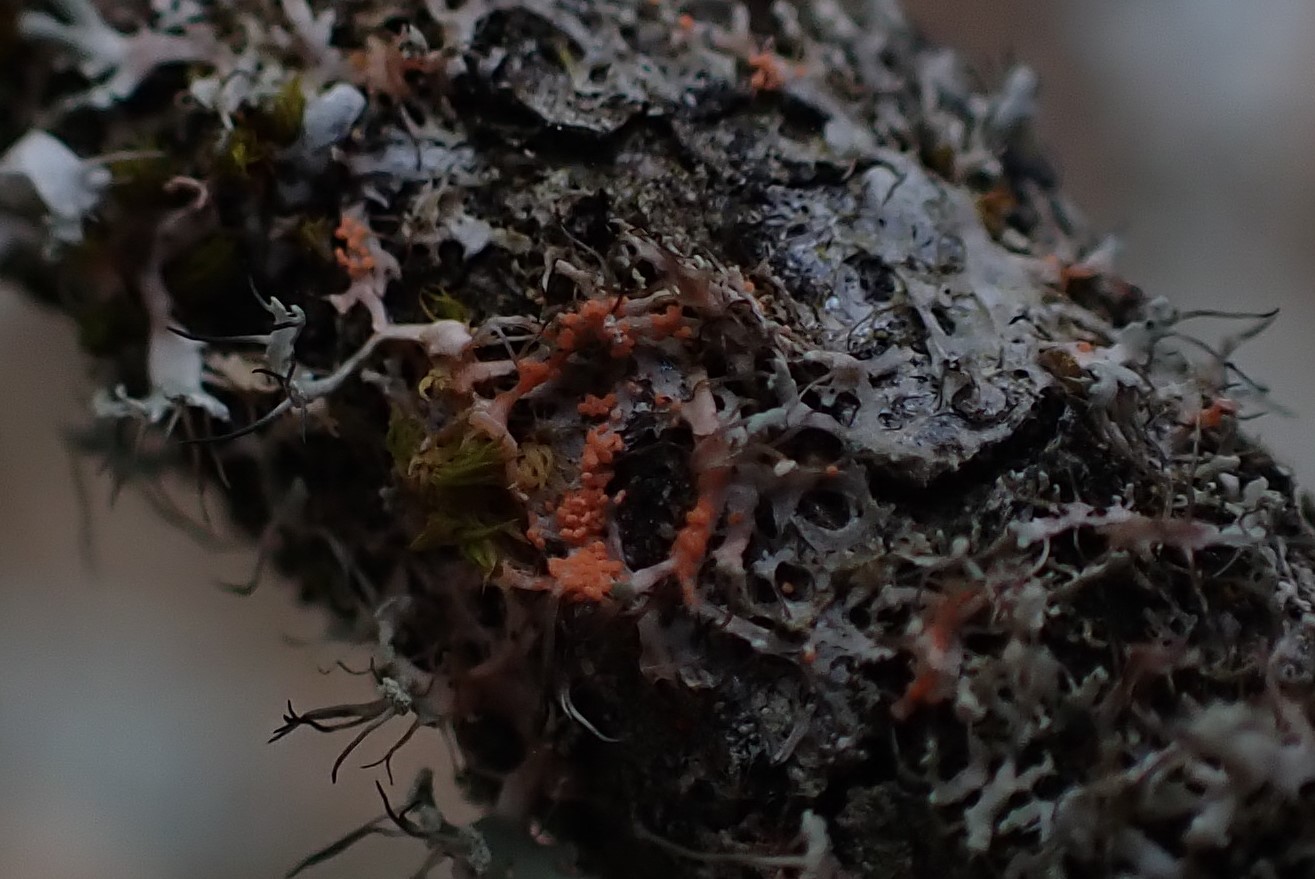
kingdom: Fungi
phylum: Basidiomycota
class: Agaricomycetes
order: Corticiales
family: Corticiaceae
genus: Erythricium
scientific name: Erythricium aurantiacum
